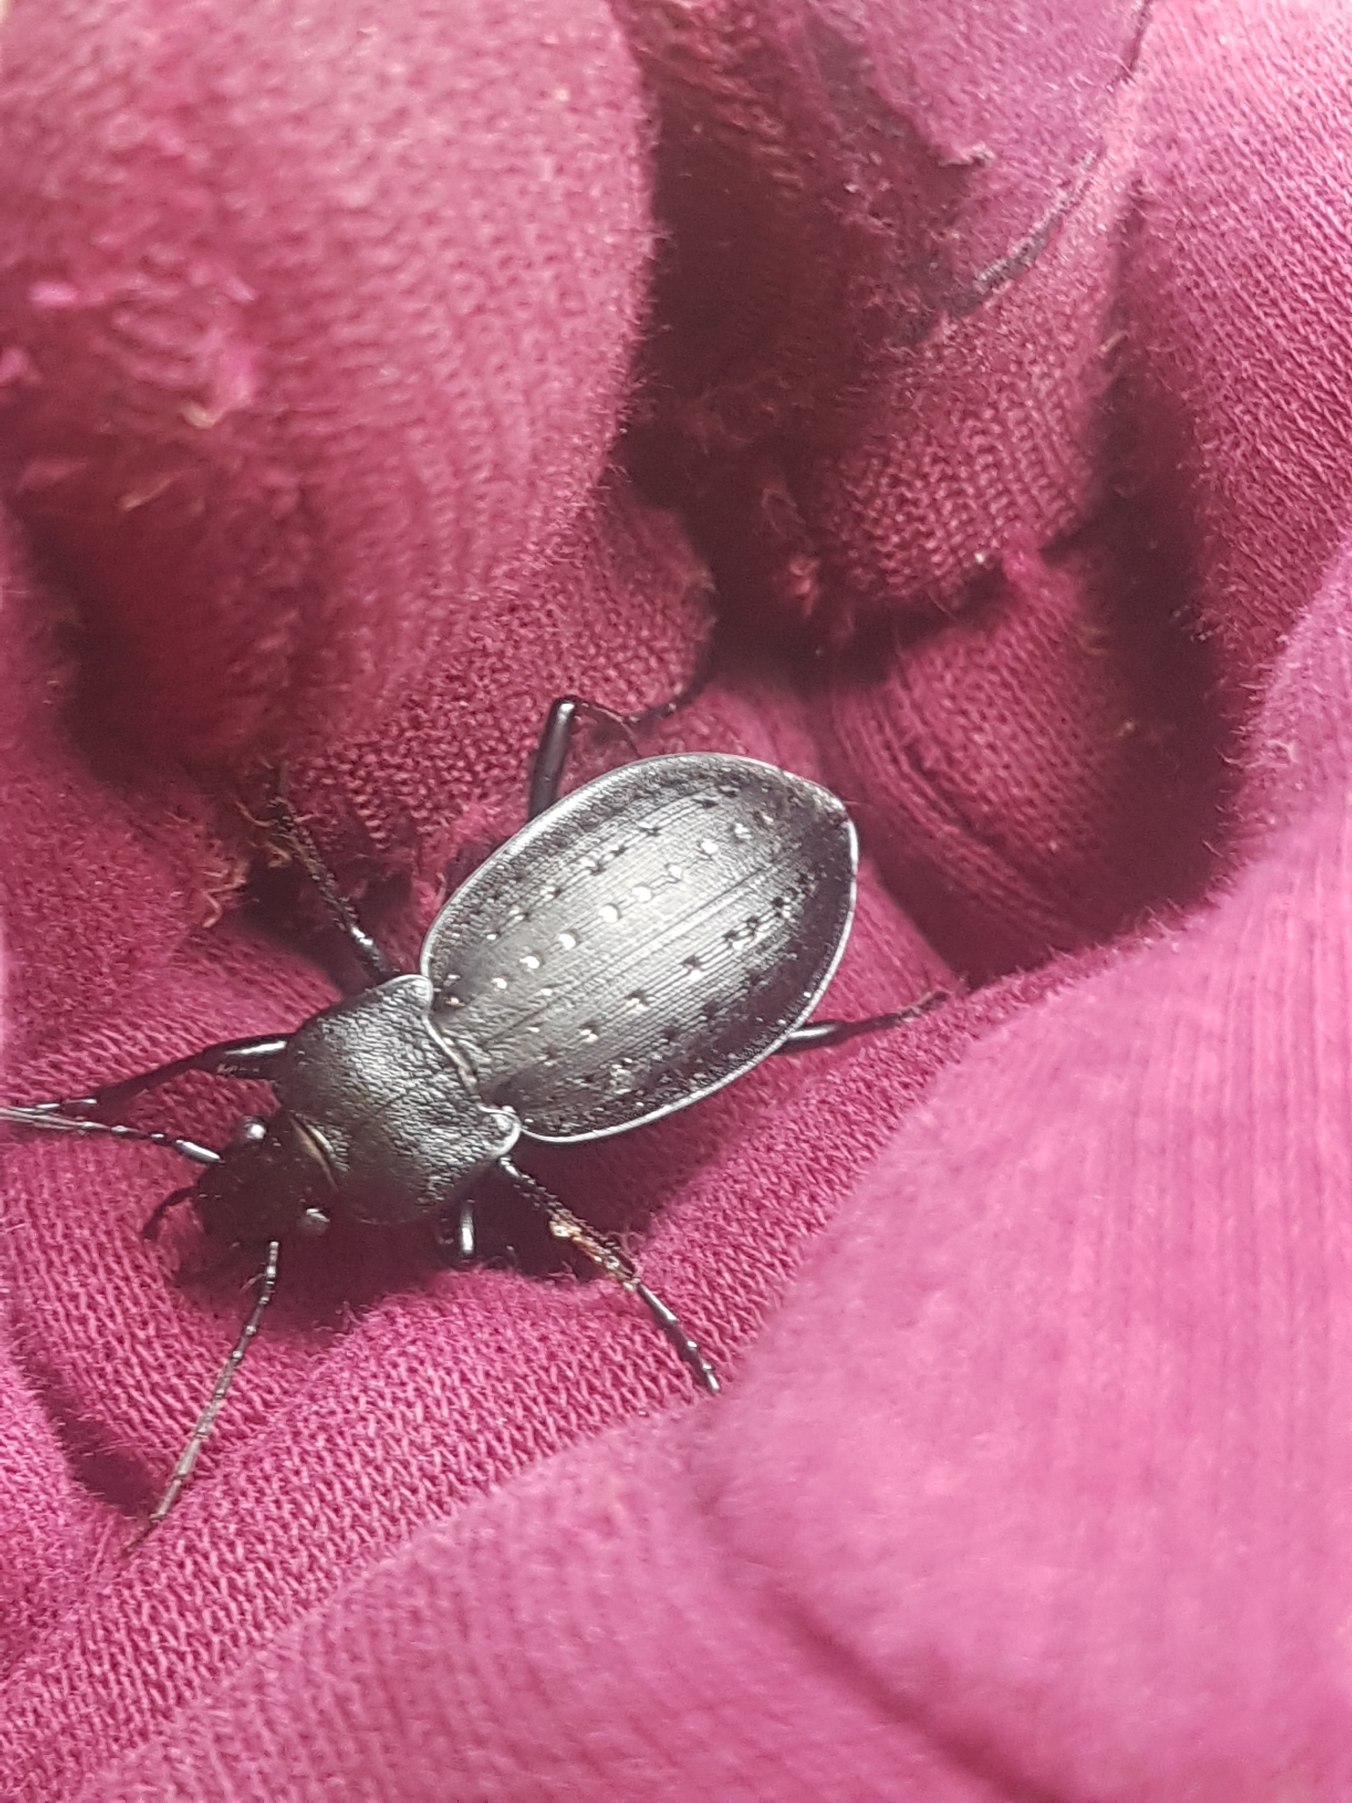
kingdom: Animalia
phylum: Arthropoda
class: Insecta
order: Coleoptera
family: Carabidae
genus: Carabus
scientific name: Carabus hortensis
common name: Guldpletløber
